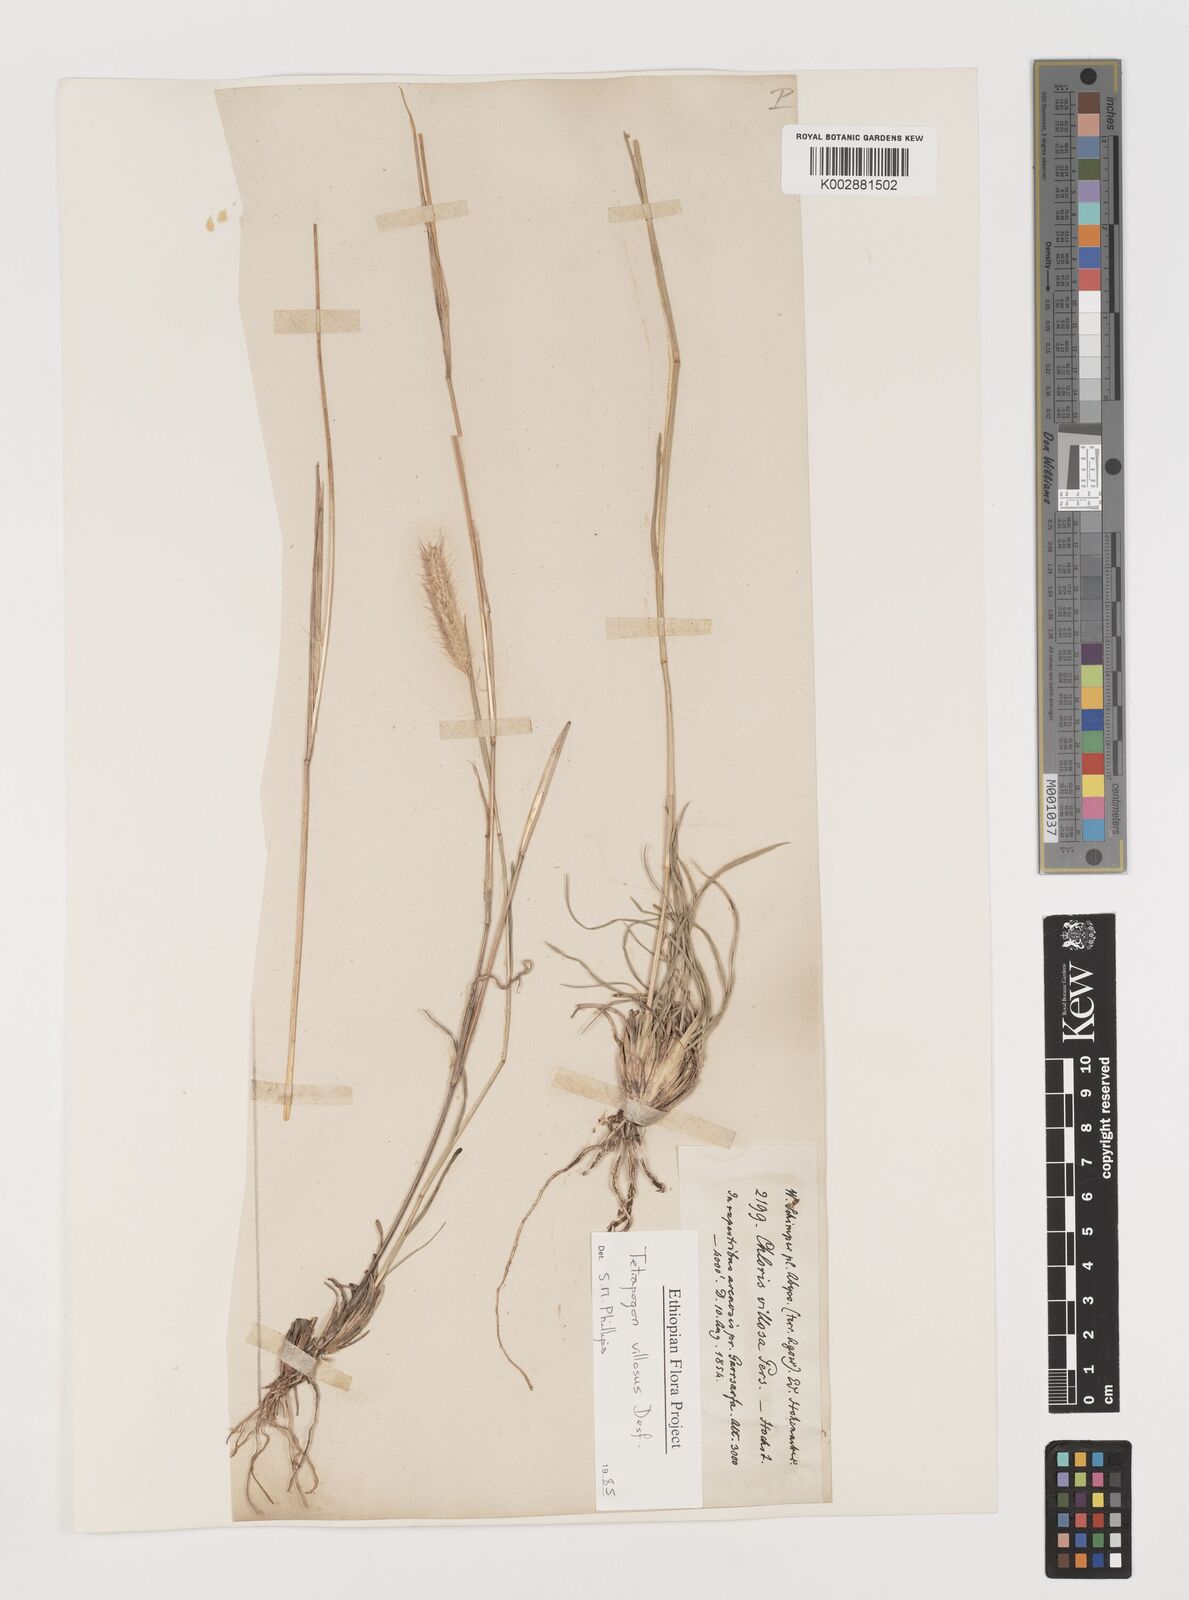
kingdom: Plantae
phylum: Tracheophyta
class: Liliopsida
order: Poales
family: Poaceae
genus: Tetrapogon
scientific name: Tetrapogon villosus
